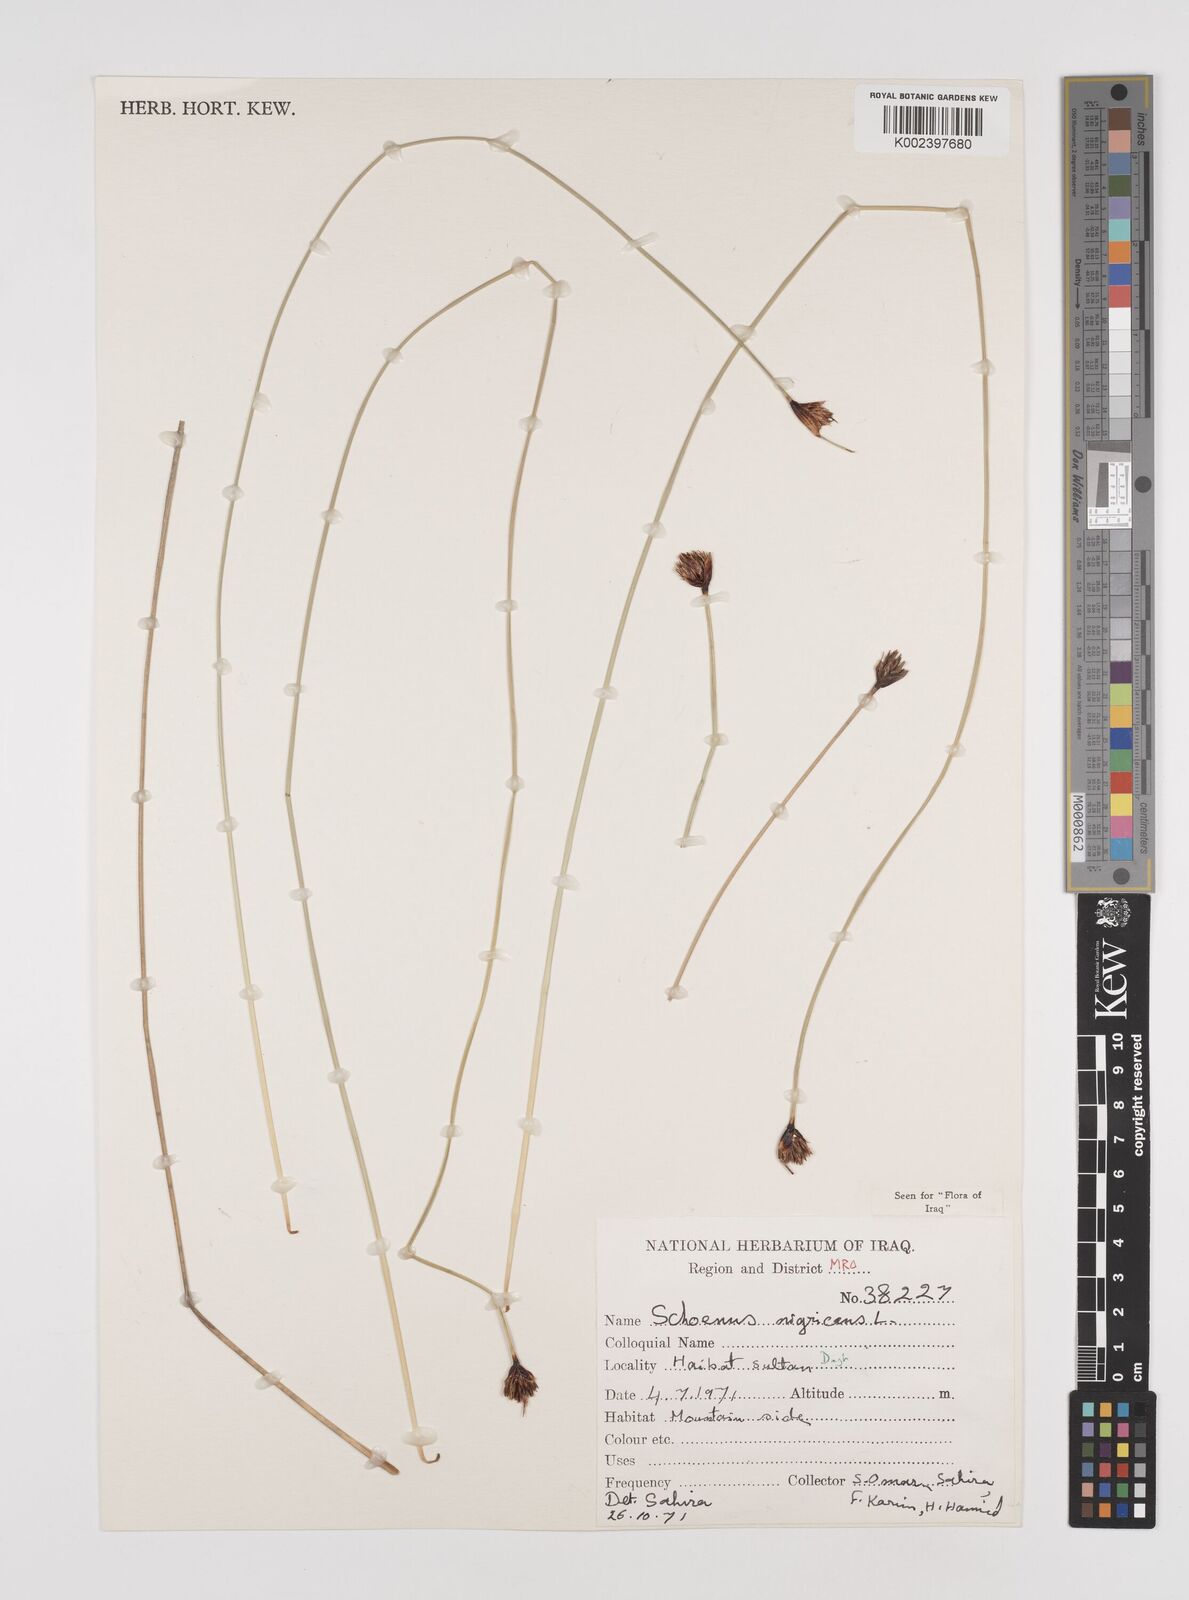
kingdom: Plantae
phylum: Tracheophyta
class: Liliopsida
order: Poales
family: Cyperaceae
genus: Schoenus
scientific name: Schoenus nigricans
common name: Black bog-rush
